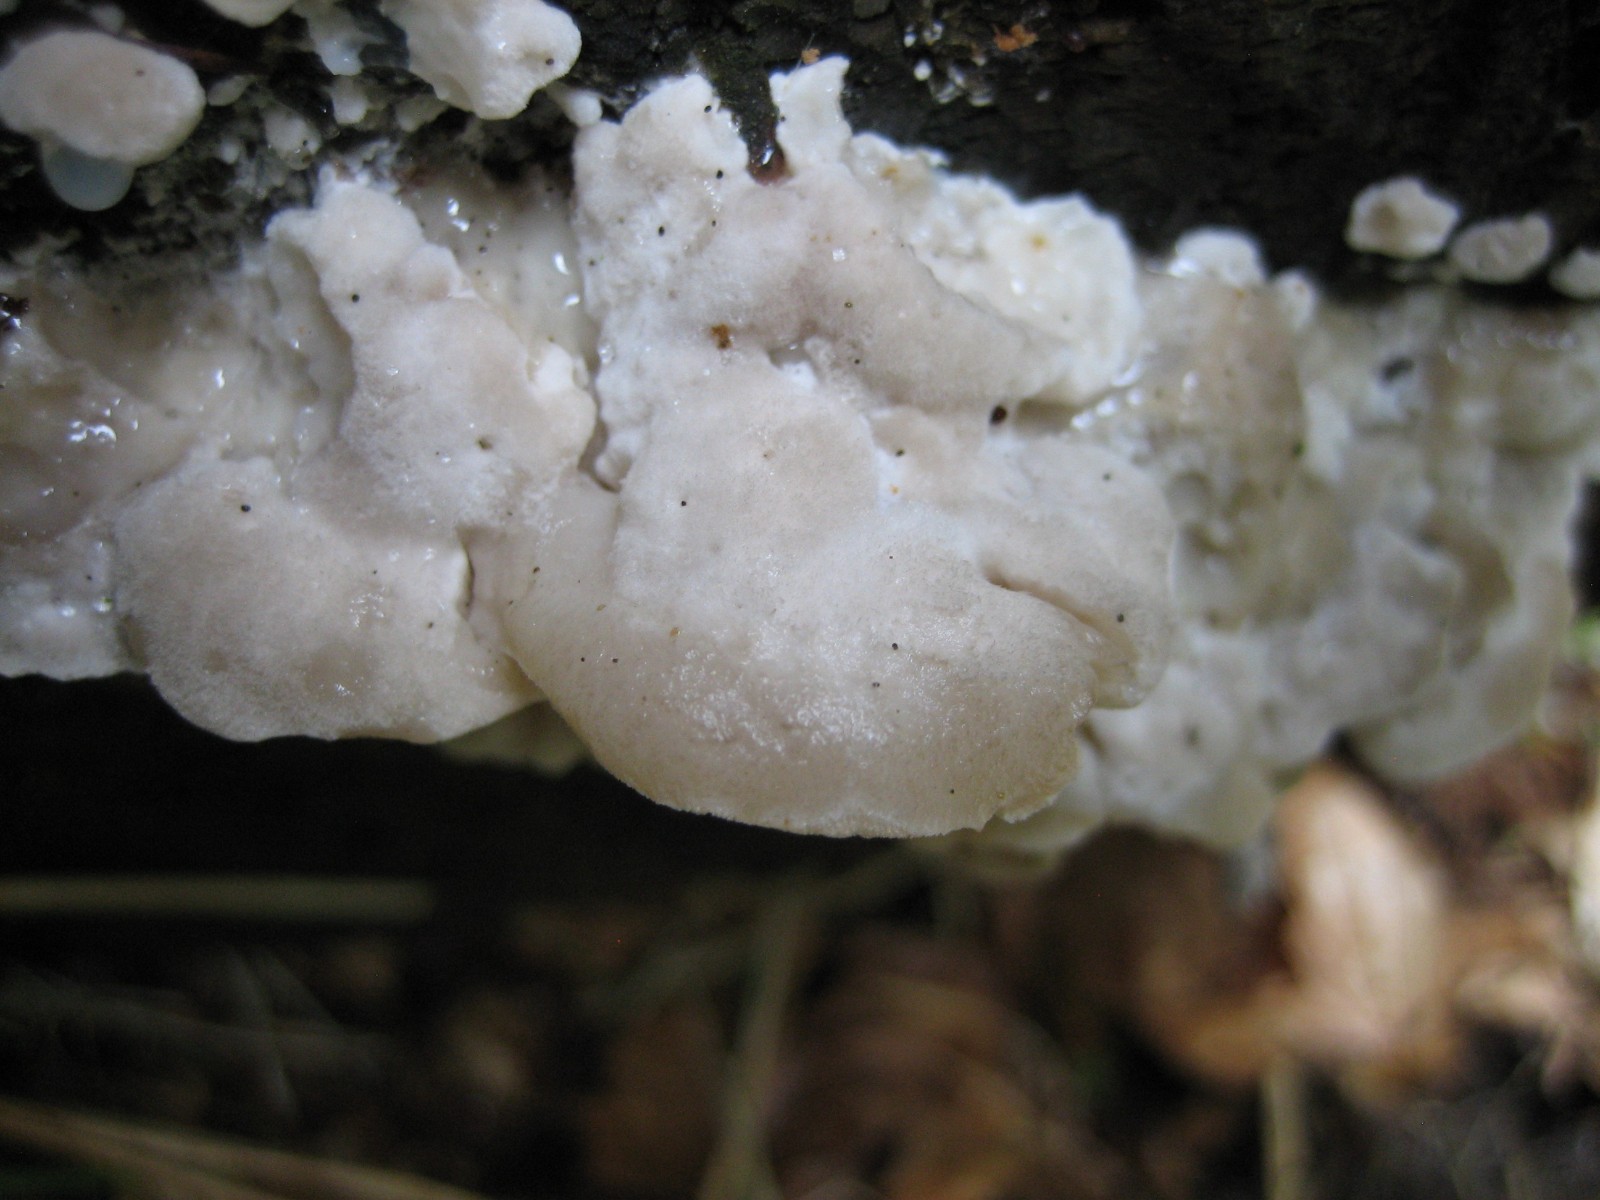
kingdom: Fungi
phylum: Basidiomycota
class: Agaricomycetes
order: Polyporales
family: Incrustoporiaceae
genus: Tyromyces
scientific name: Tyromyces lacteus
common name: mælkehvid kødporesvamp
